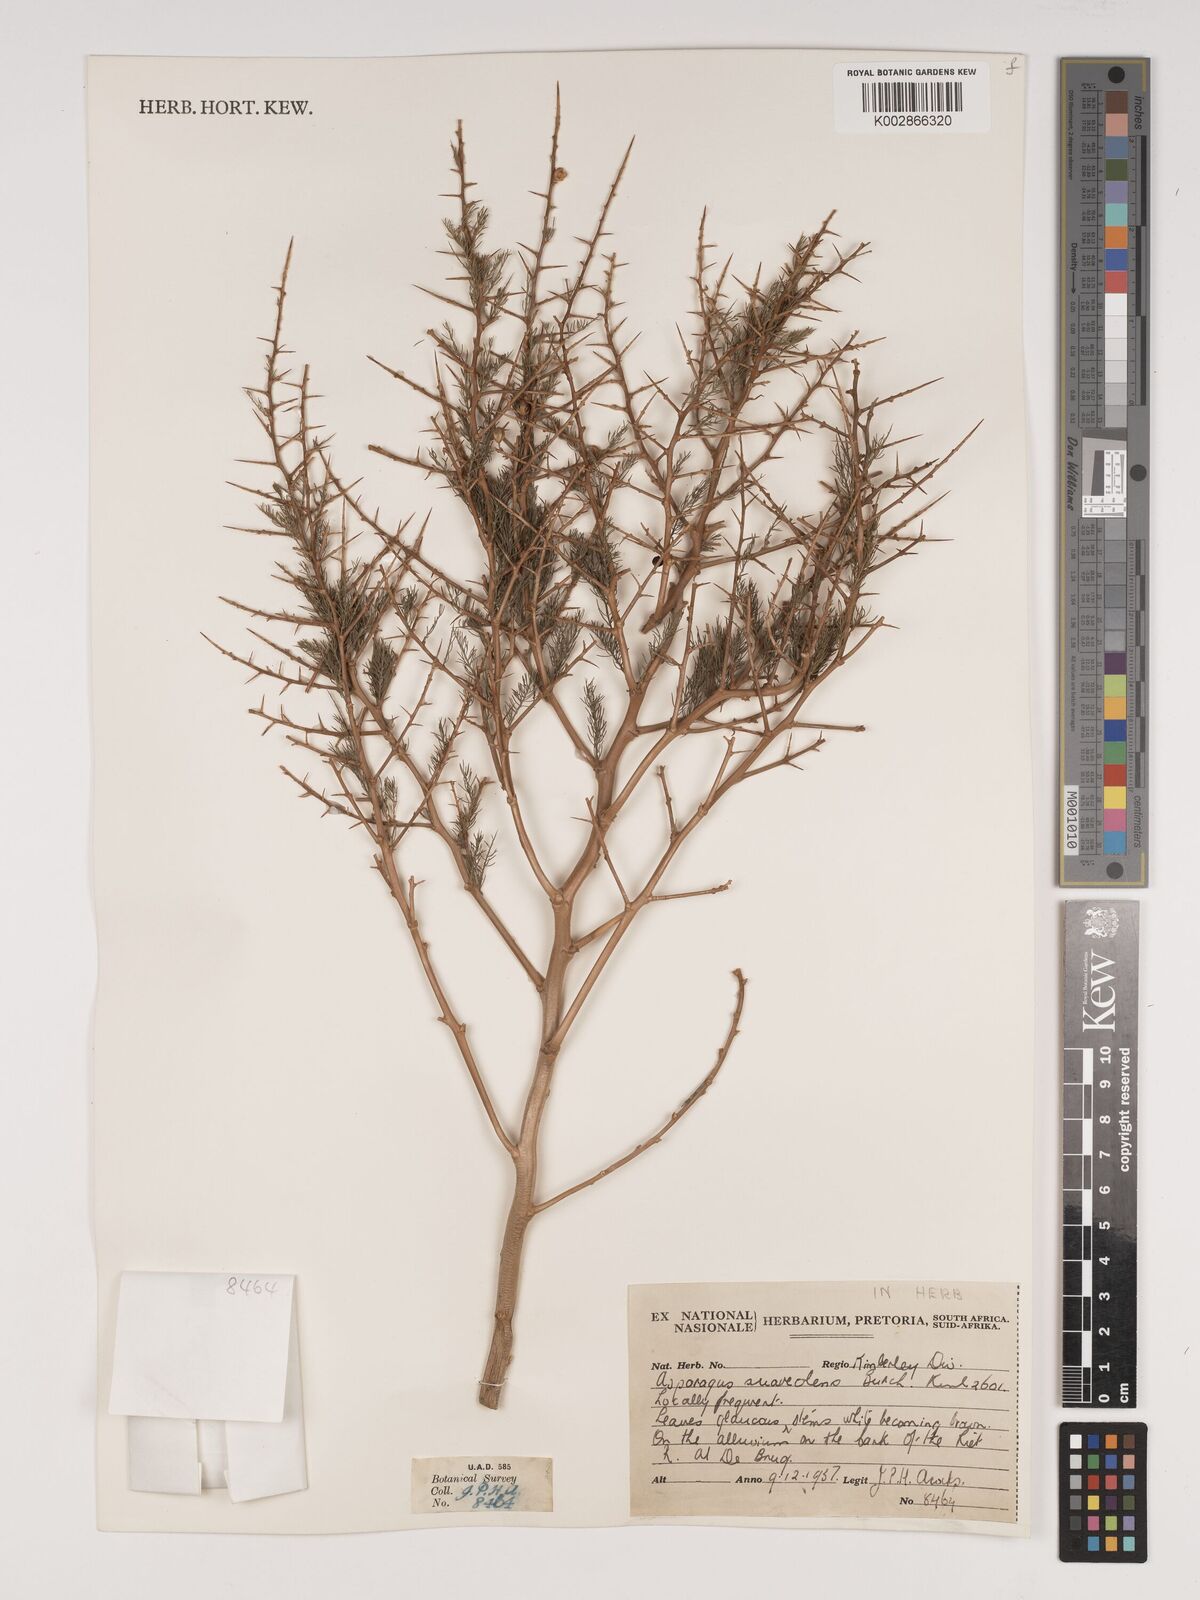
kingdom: Plantae
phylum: Tracheophyta
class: Liliopsida
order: Asparagales
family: Asparagaceae
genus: Asparagus
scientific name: Asparagus glaucus
